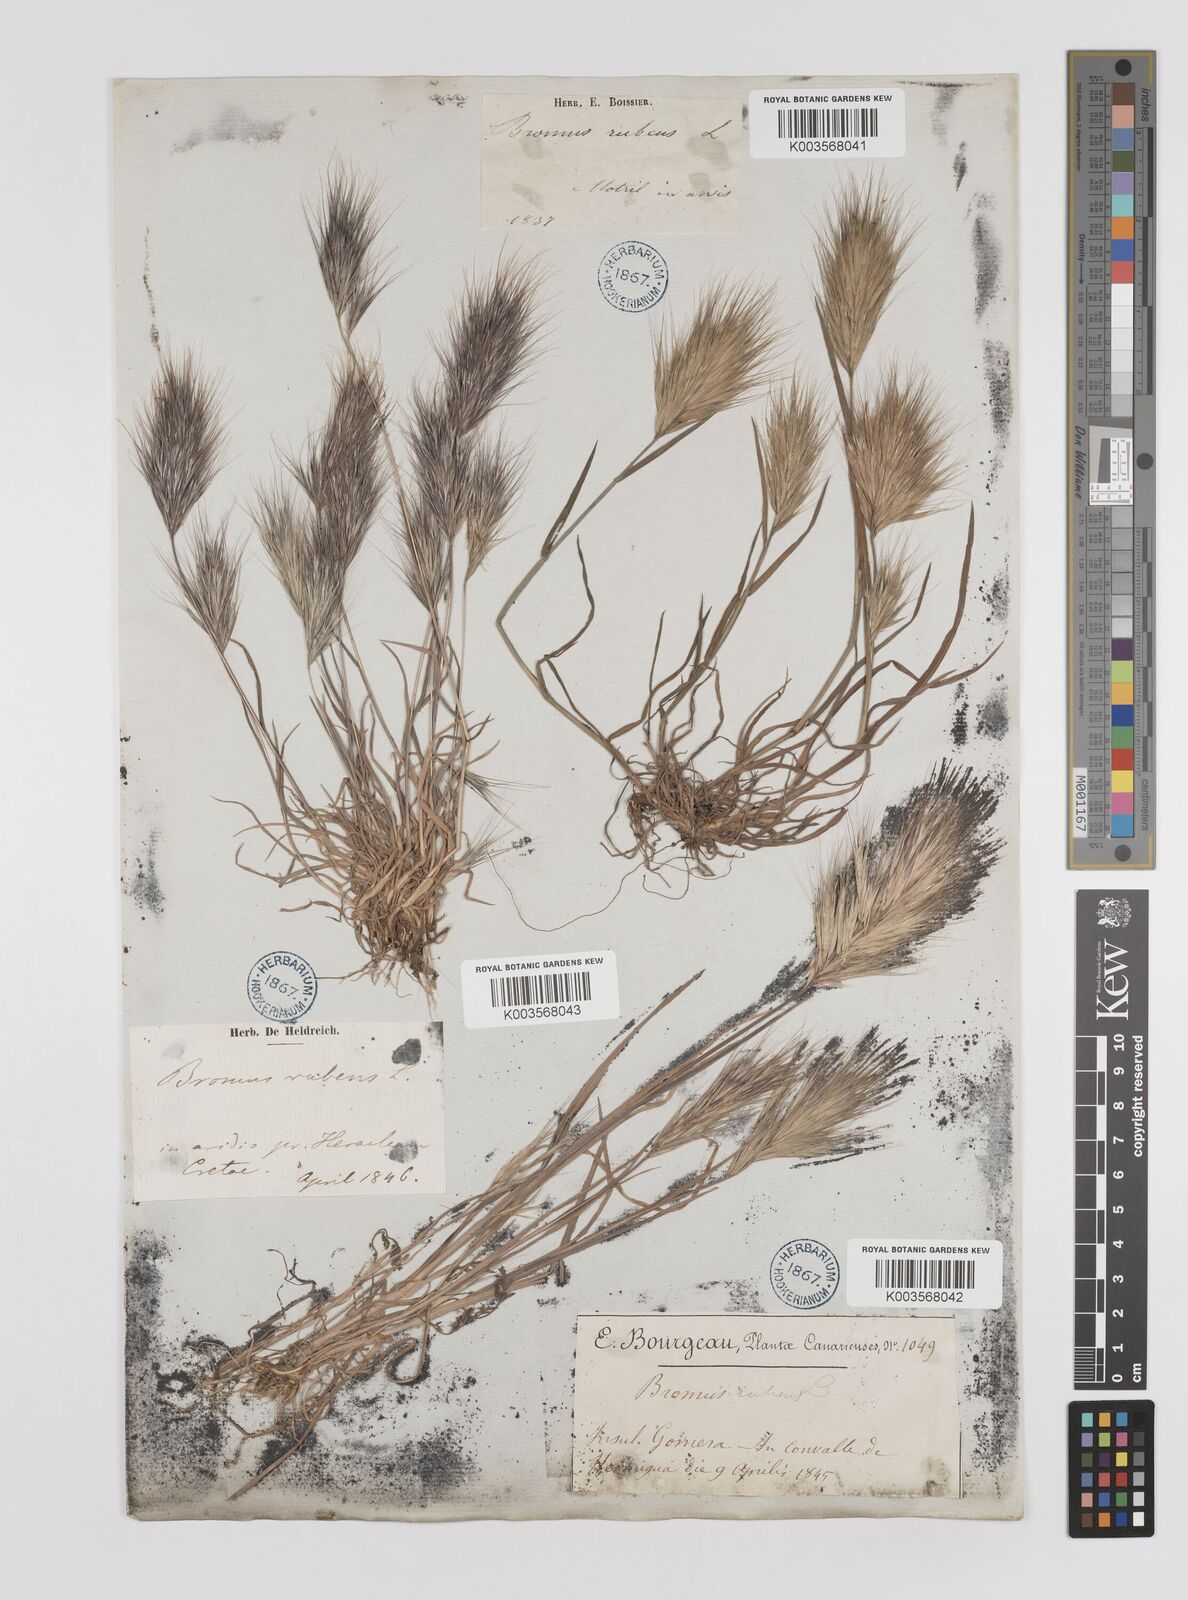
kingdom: Plantae
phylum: Tracheophyta
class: Liliopsida
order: Poales
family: Poaceae
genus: Bromus
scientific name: Bromus
